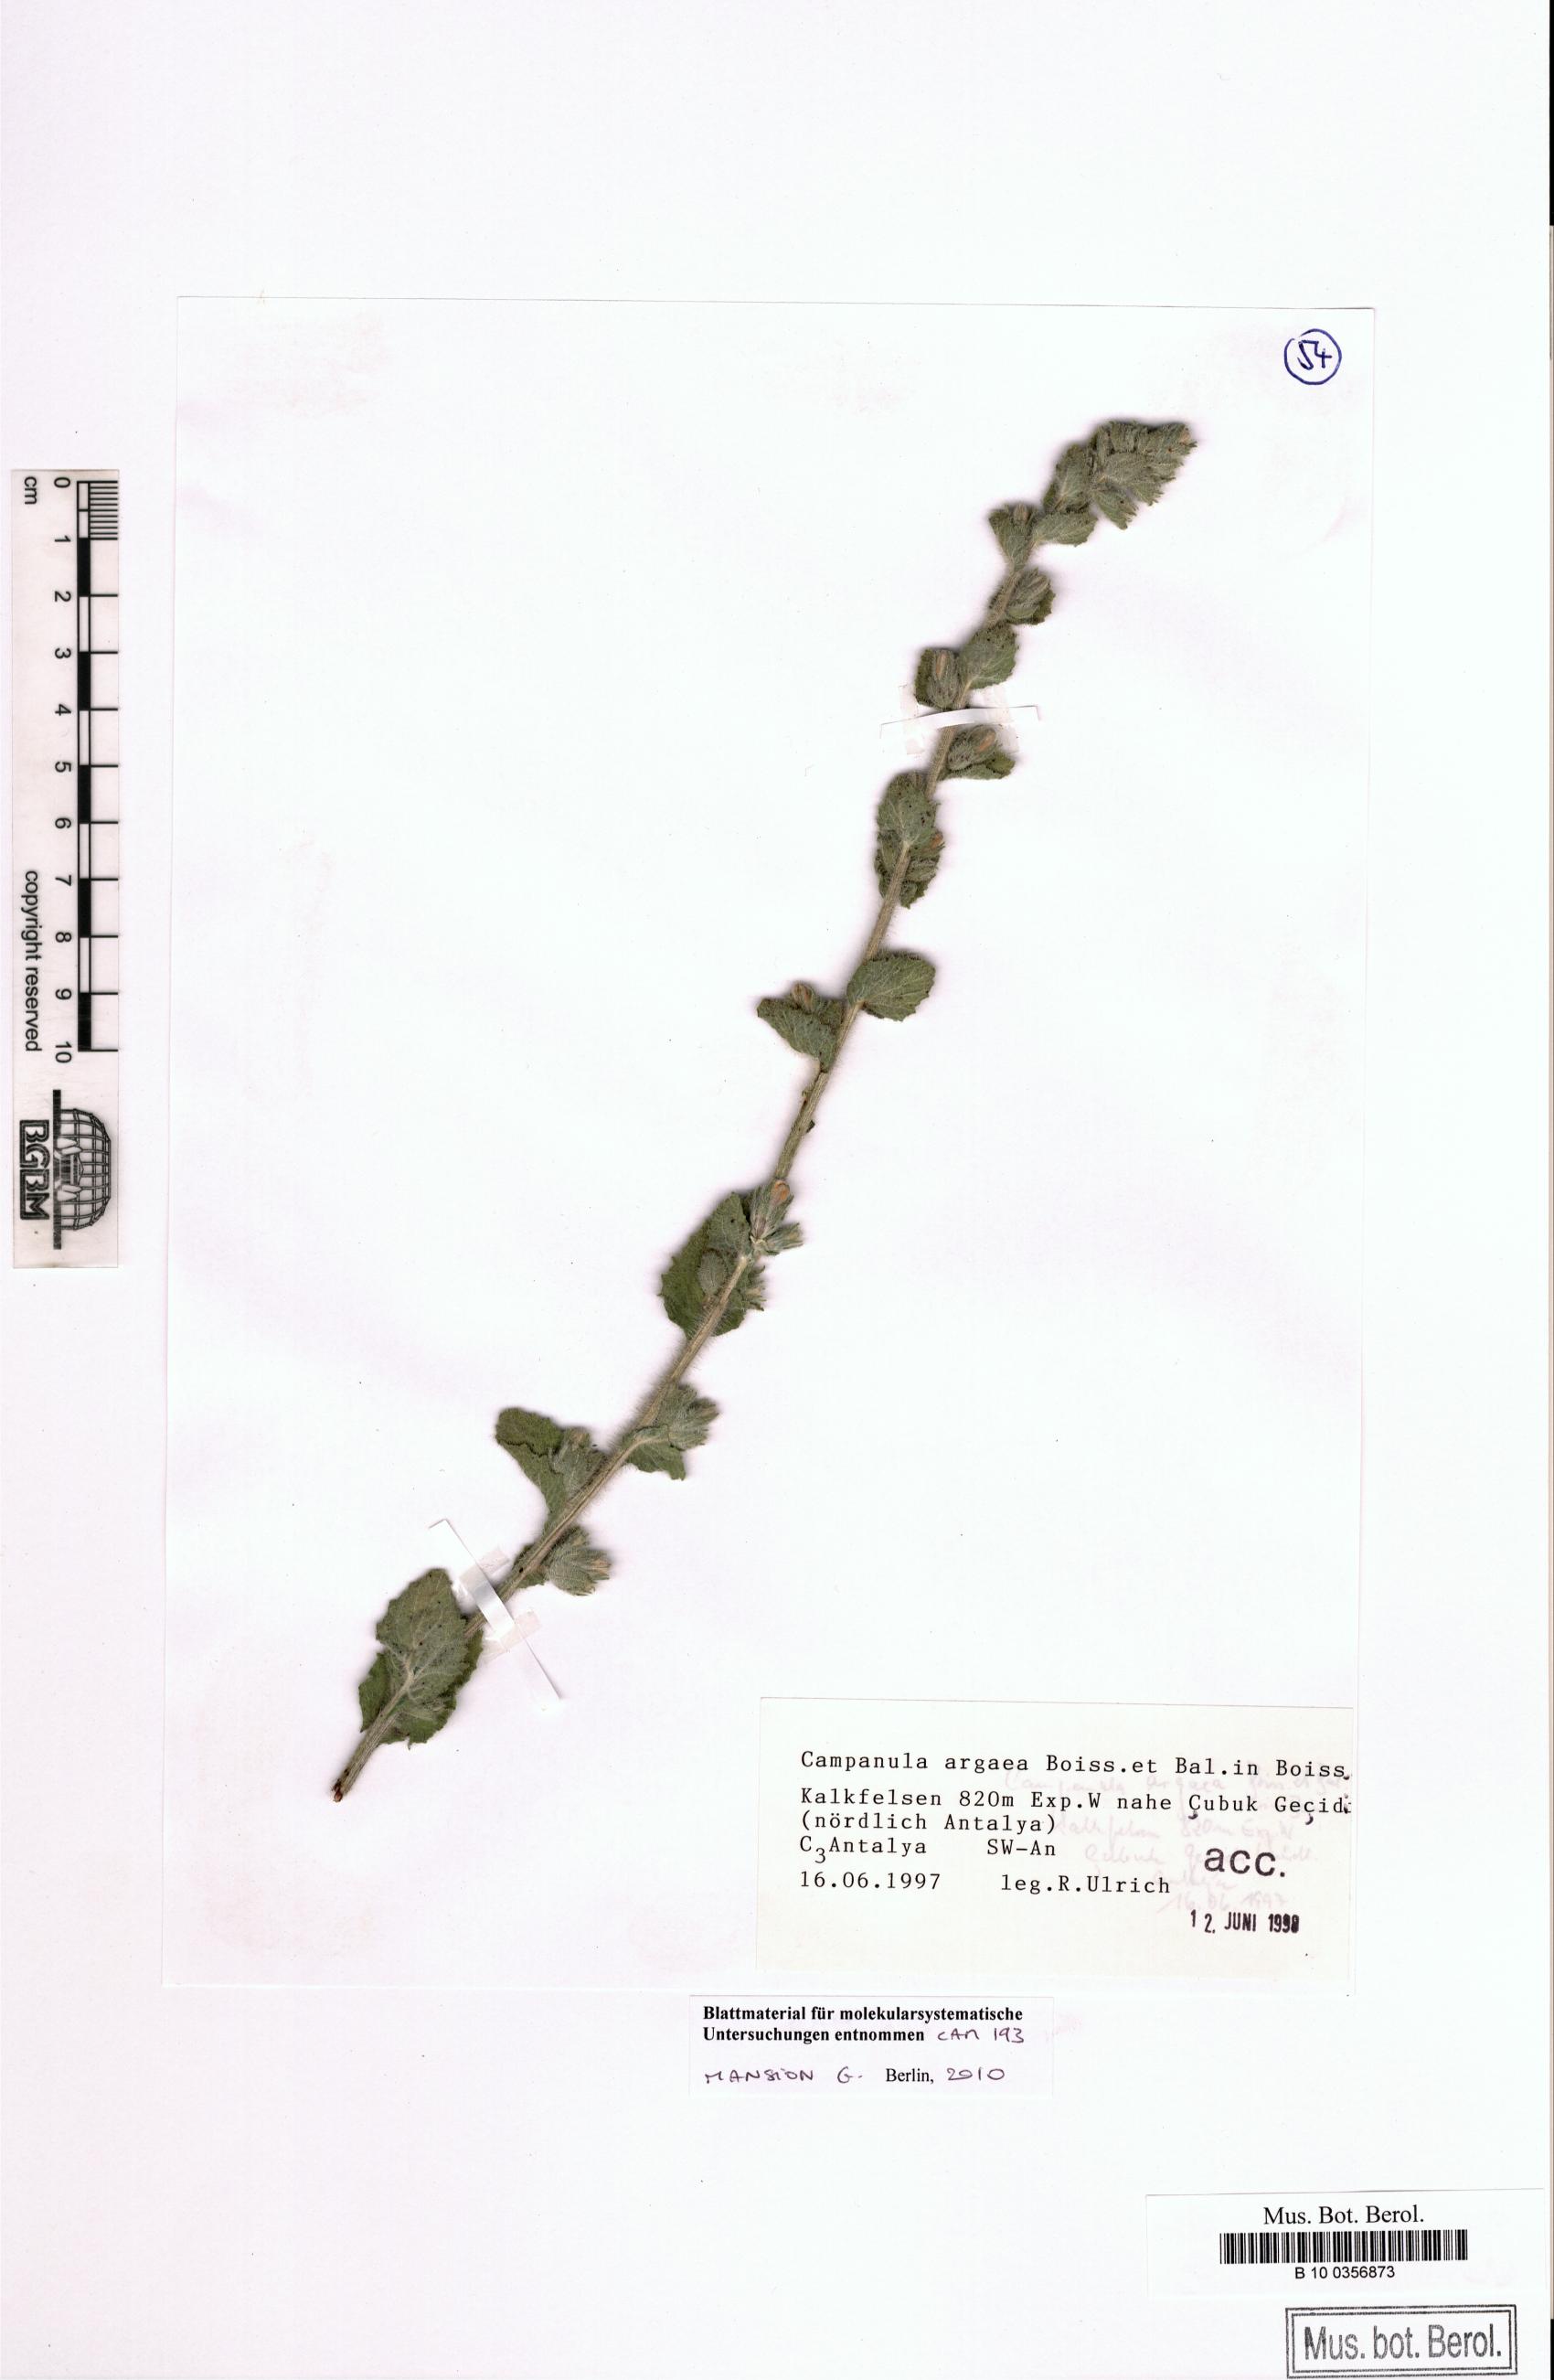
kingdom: Plantae
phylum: Tracheophyta
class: Magnoliopsida
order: Asterales
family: Campanulaceae
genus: Campanula
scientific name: Campanula ajugifolia
